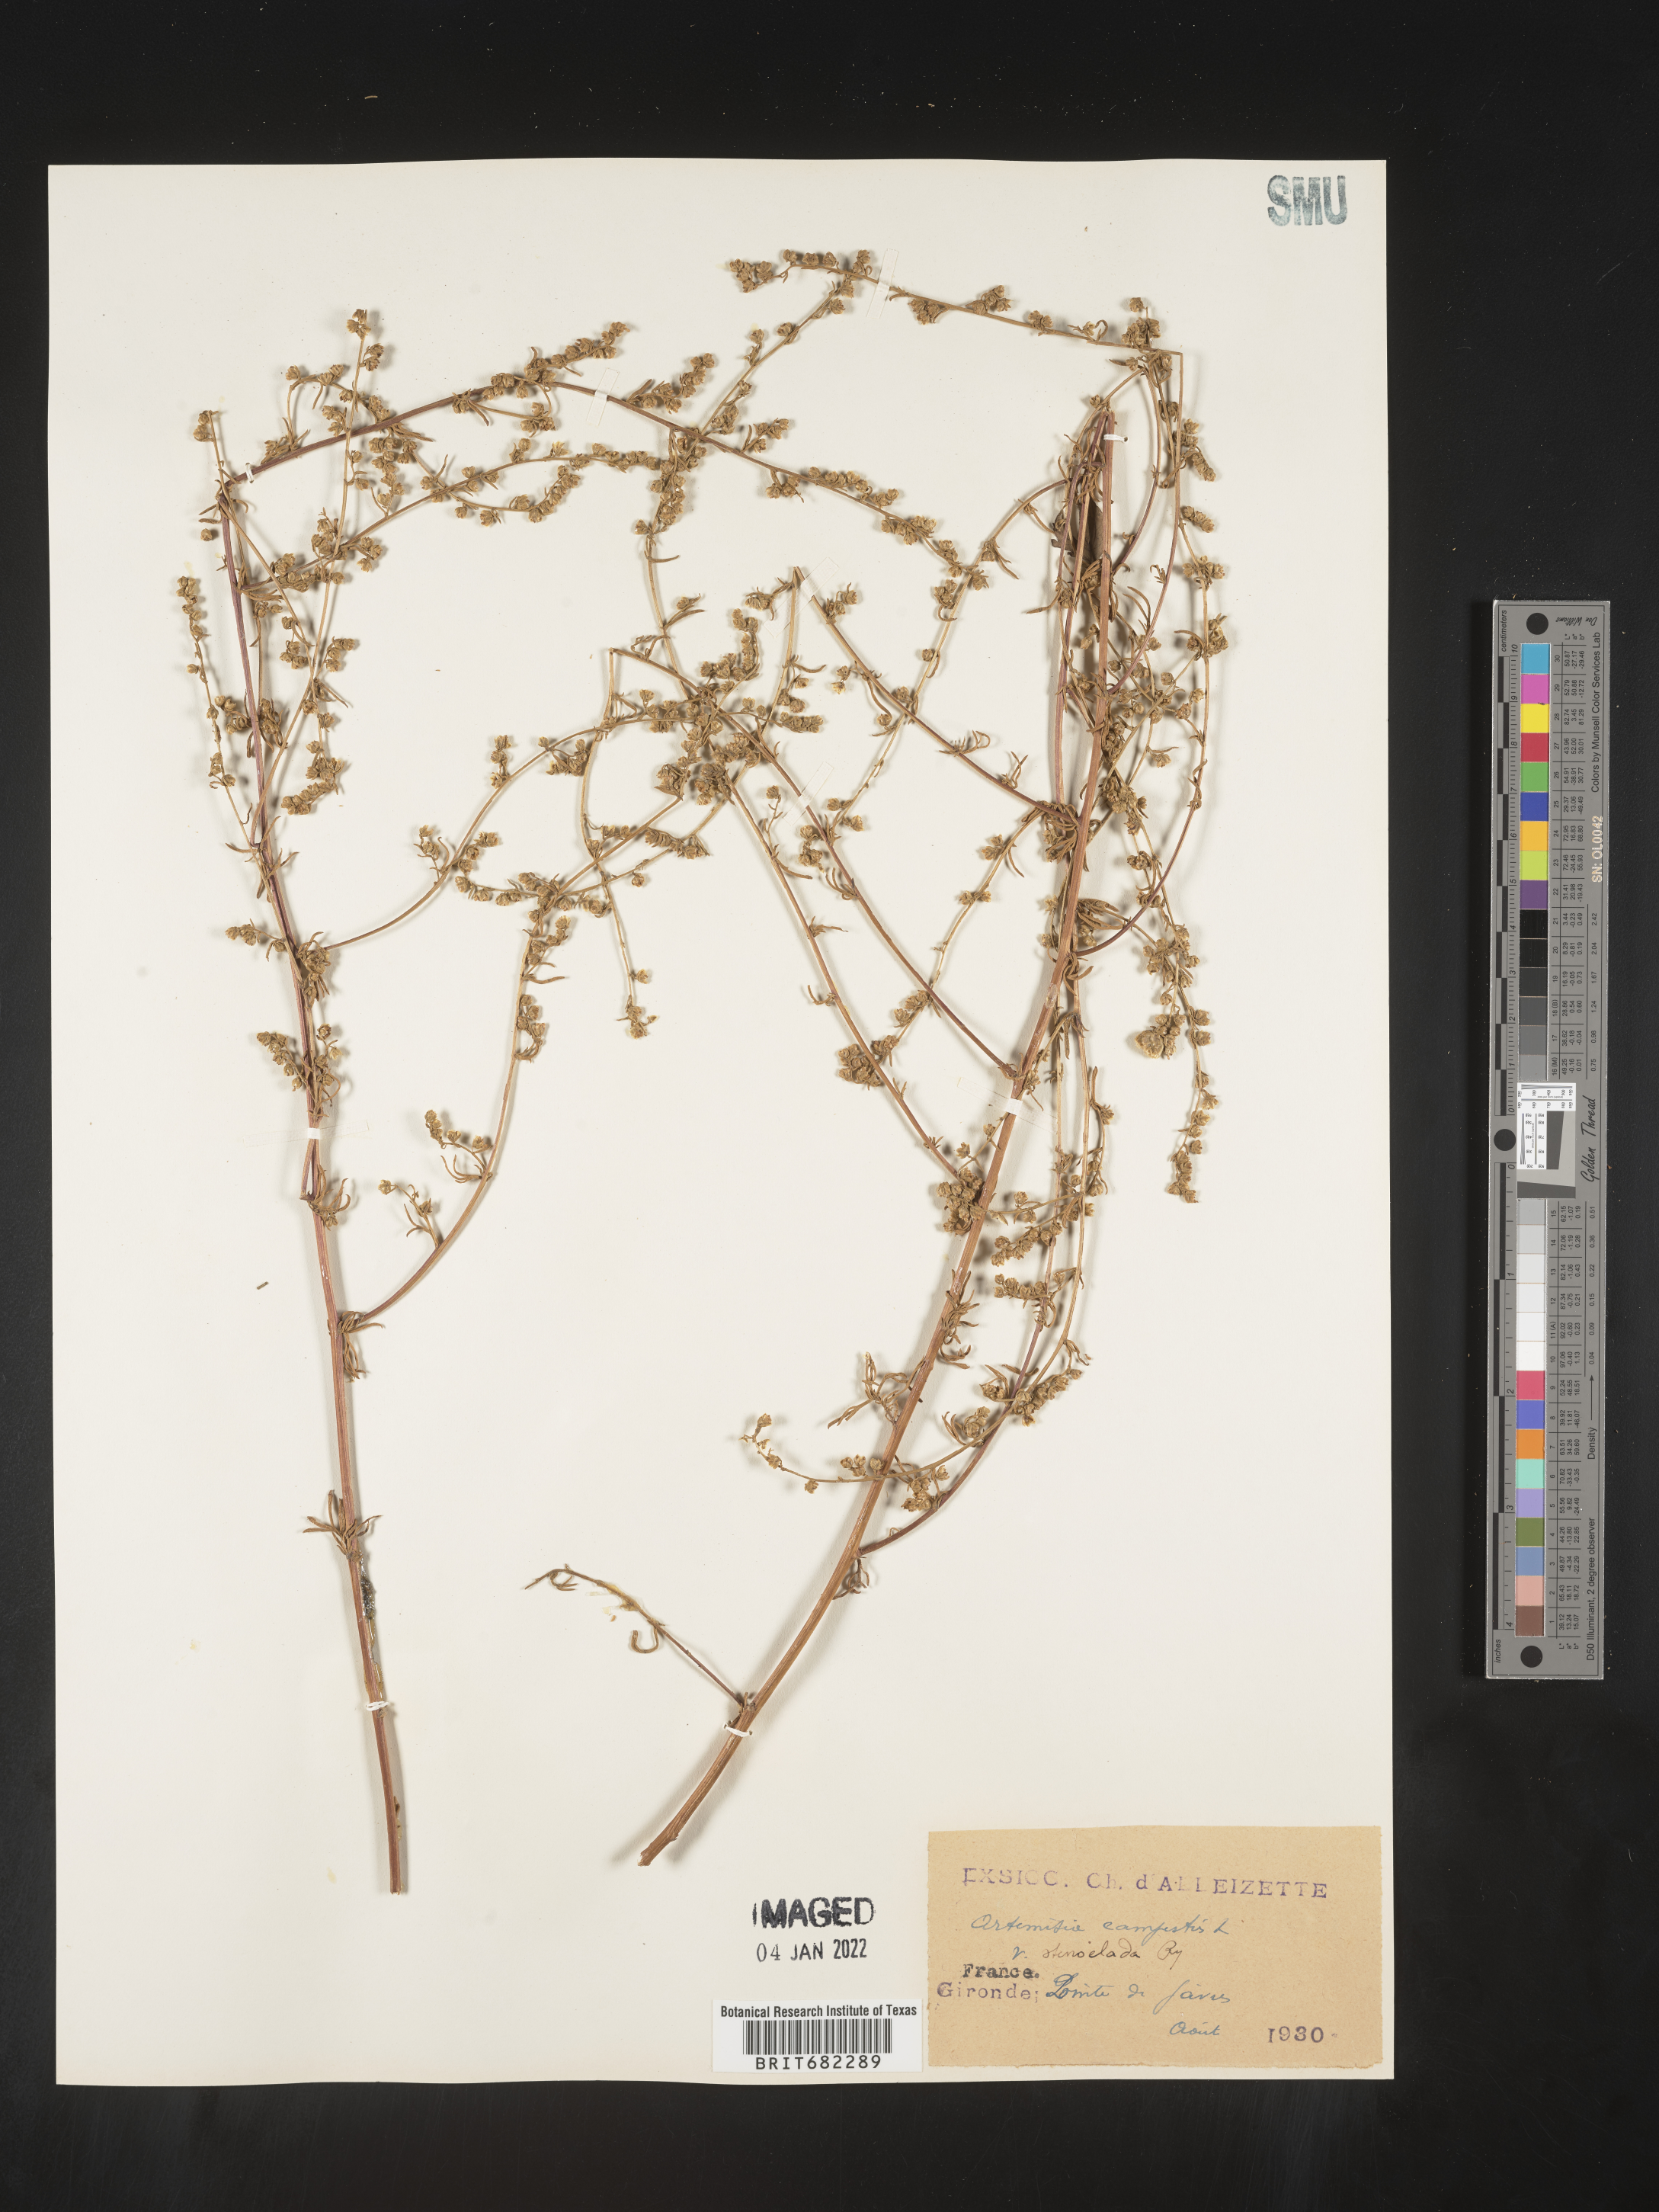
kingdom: Plantae
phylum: Tracheophyta
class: Magnoliopsida
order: Asterales
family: Asteraceae
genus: Artemisia
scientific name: Artemisia campestris
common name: Field wormwood
